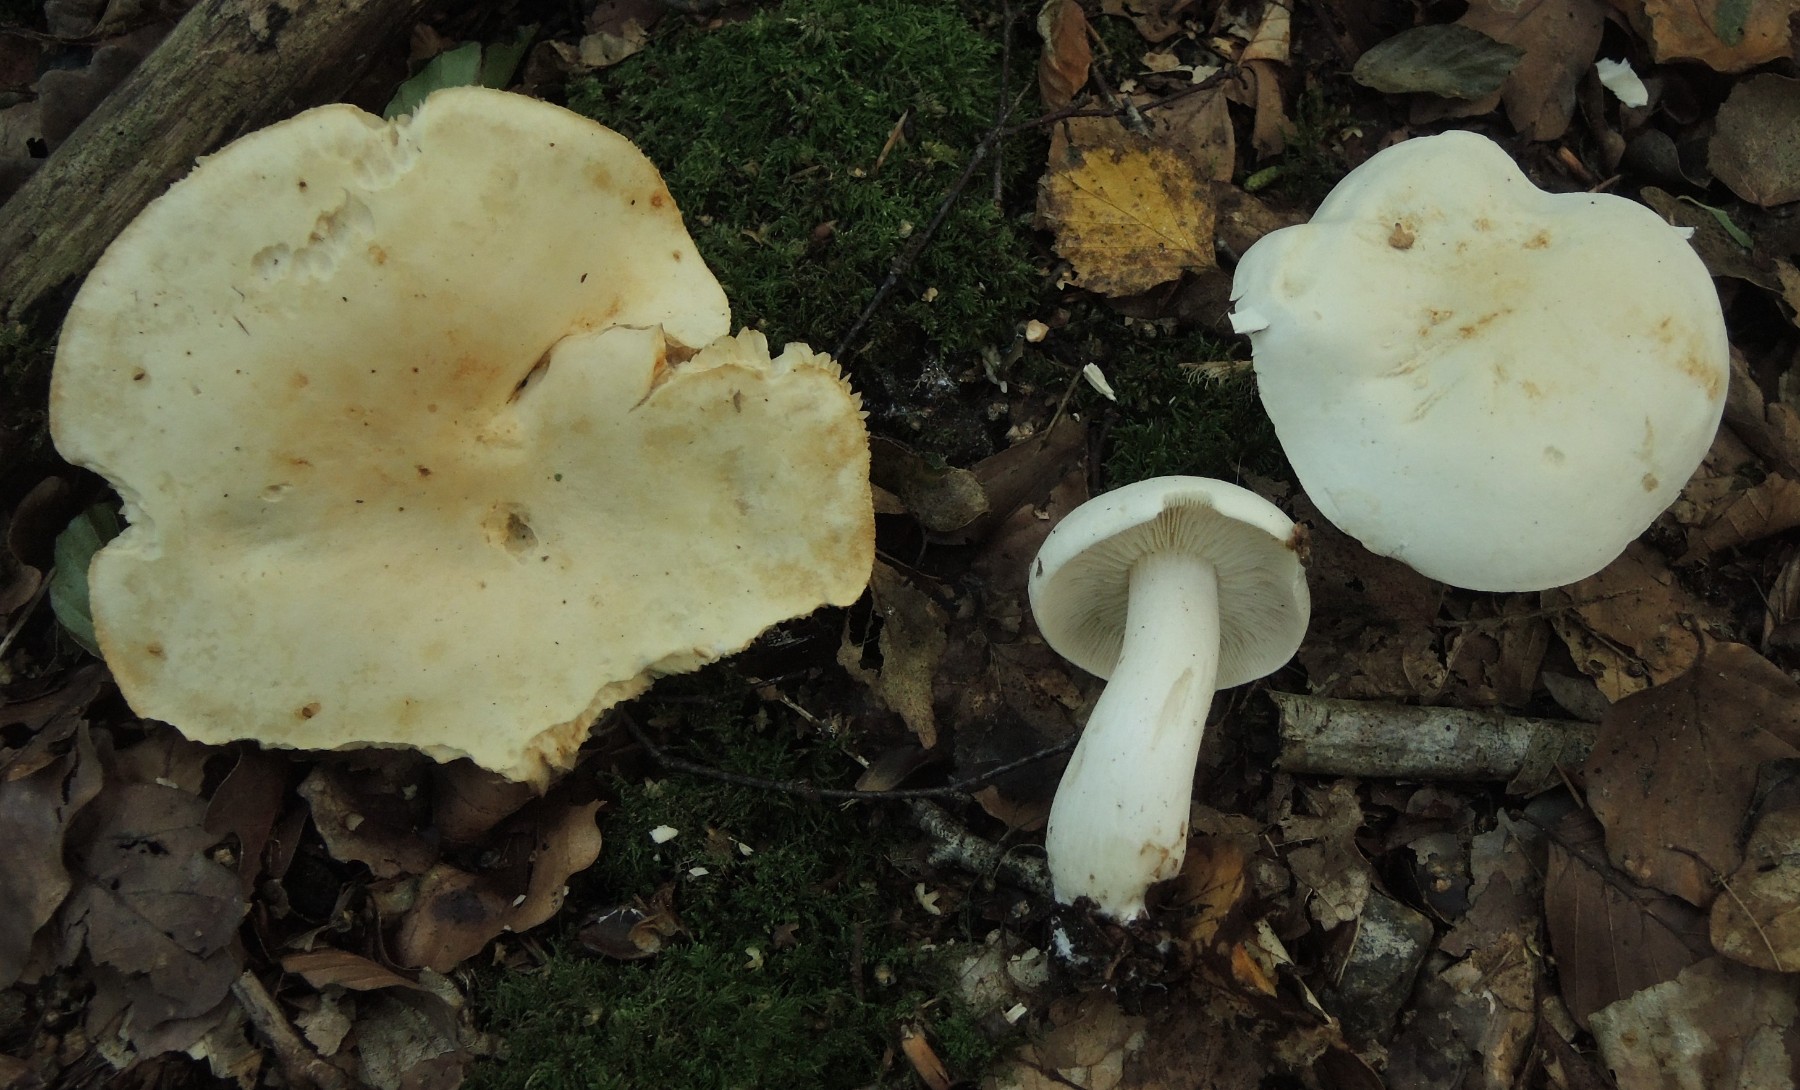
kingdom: Fungi
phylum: Basidiomycota
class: Agaricomycetes
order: Agaricales
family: Tricholomataceae
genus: Tricholoma
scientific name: Tricholoma stiparophyllum
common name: hvid ridderhat
